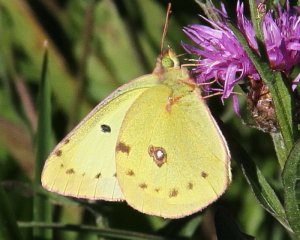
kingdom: Animalia
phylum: Arthropoda
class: Insecta
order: Lepidoptera
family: Pieridae
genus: Colias
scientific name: Colias philodice
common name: Clouded Sulphur
